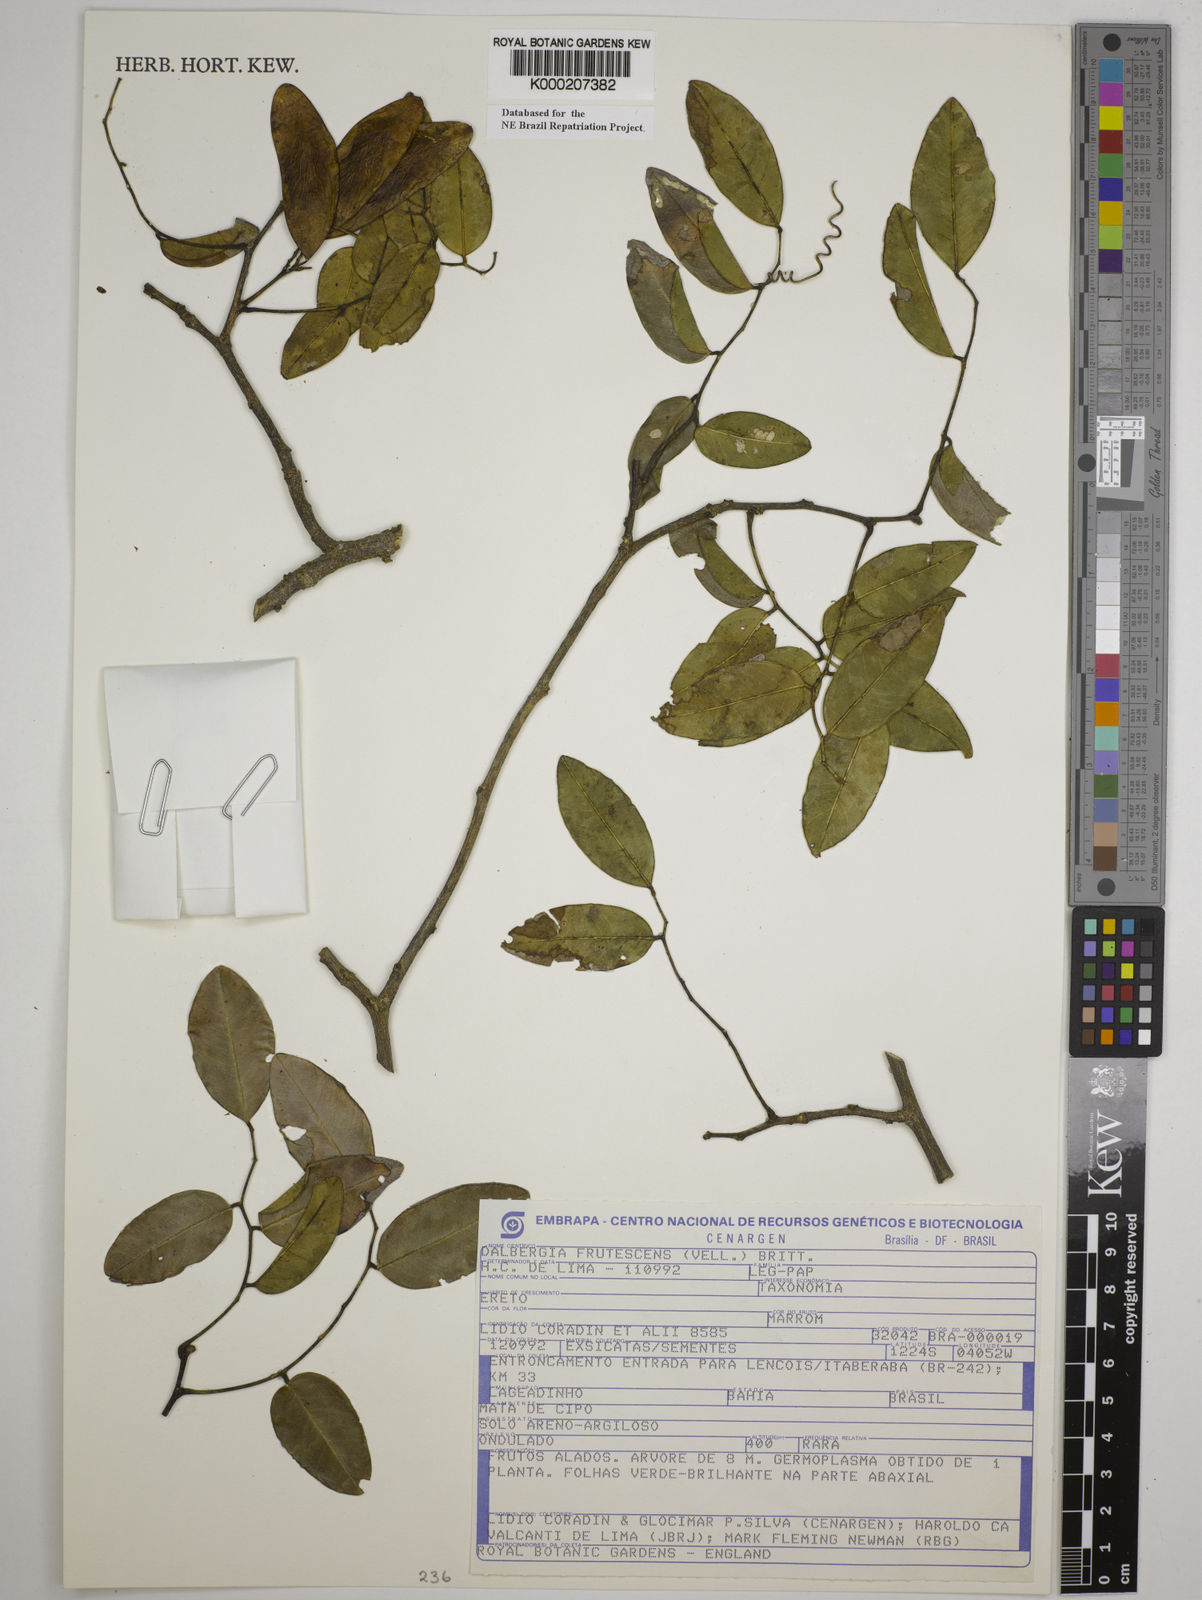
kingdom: Plantae
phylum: Tracheophyta
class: Magnoliopsida
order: Fabales
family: Fabaceae
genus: Dalbergia
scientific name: Dalbergia frutescens
